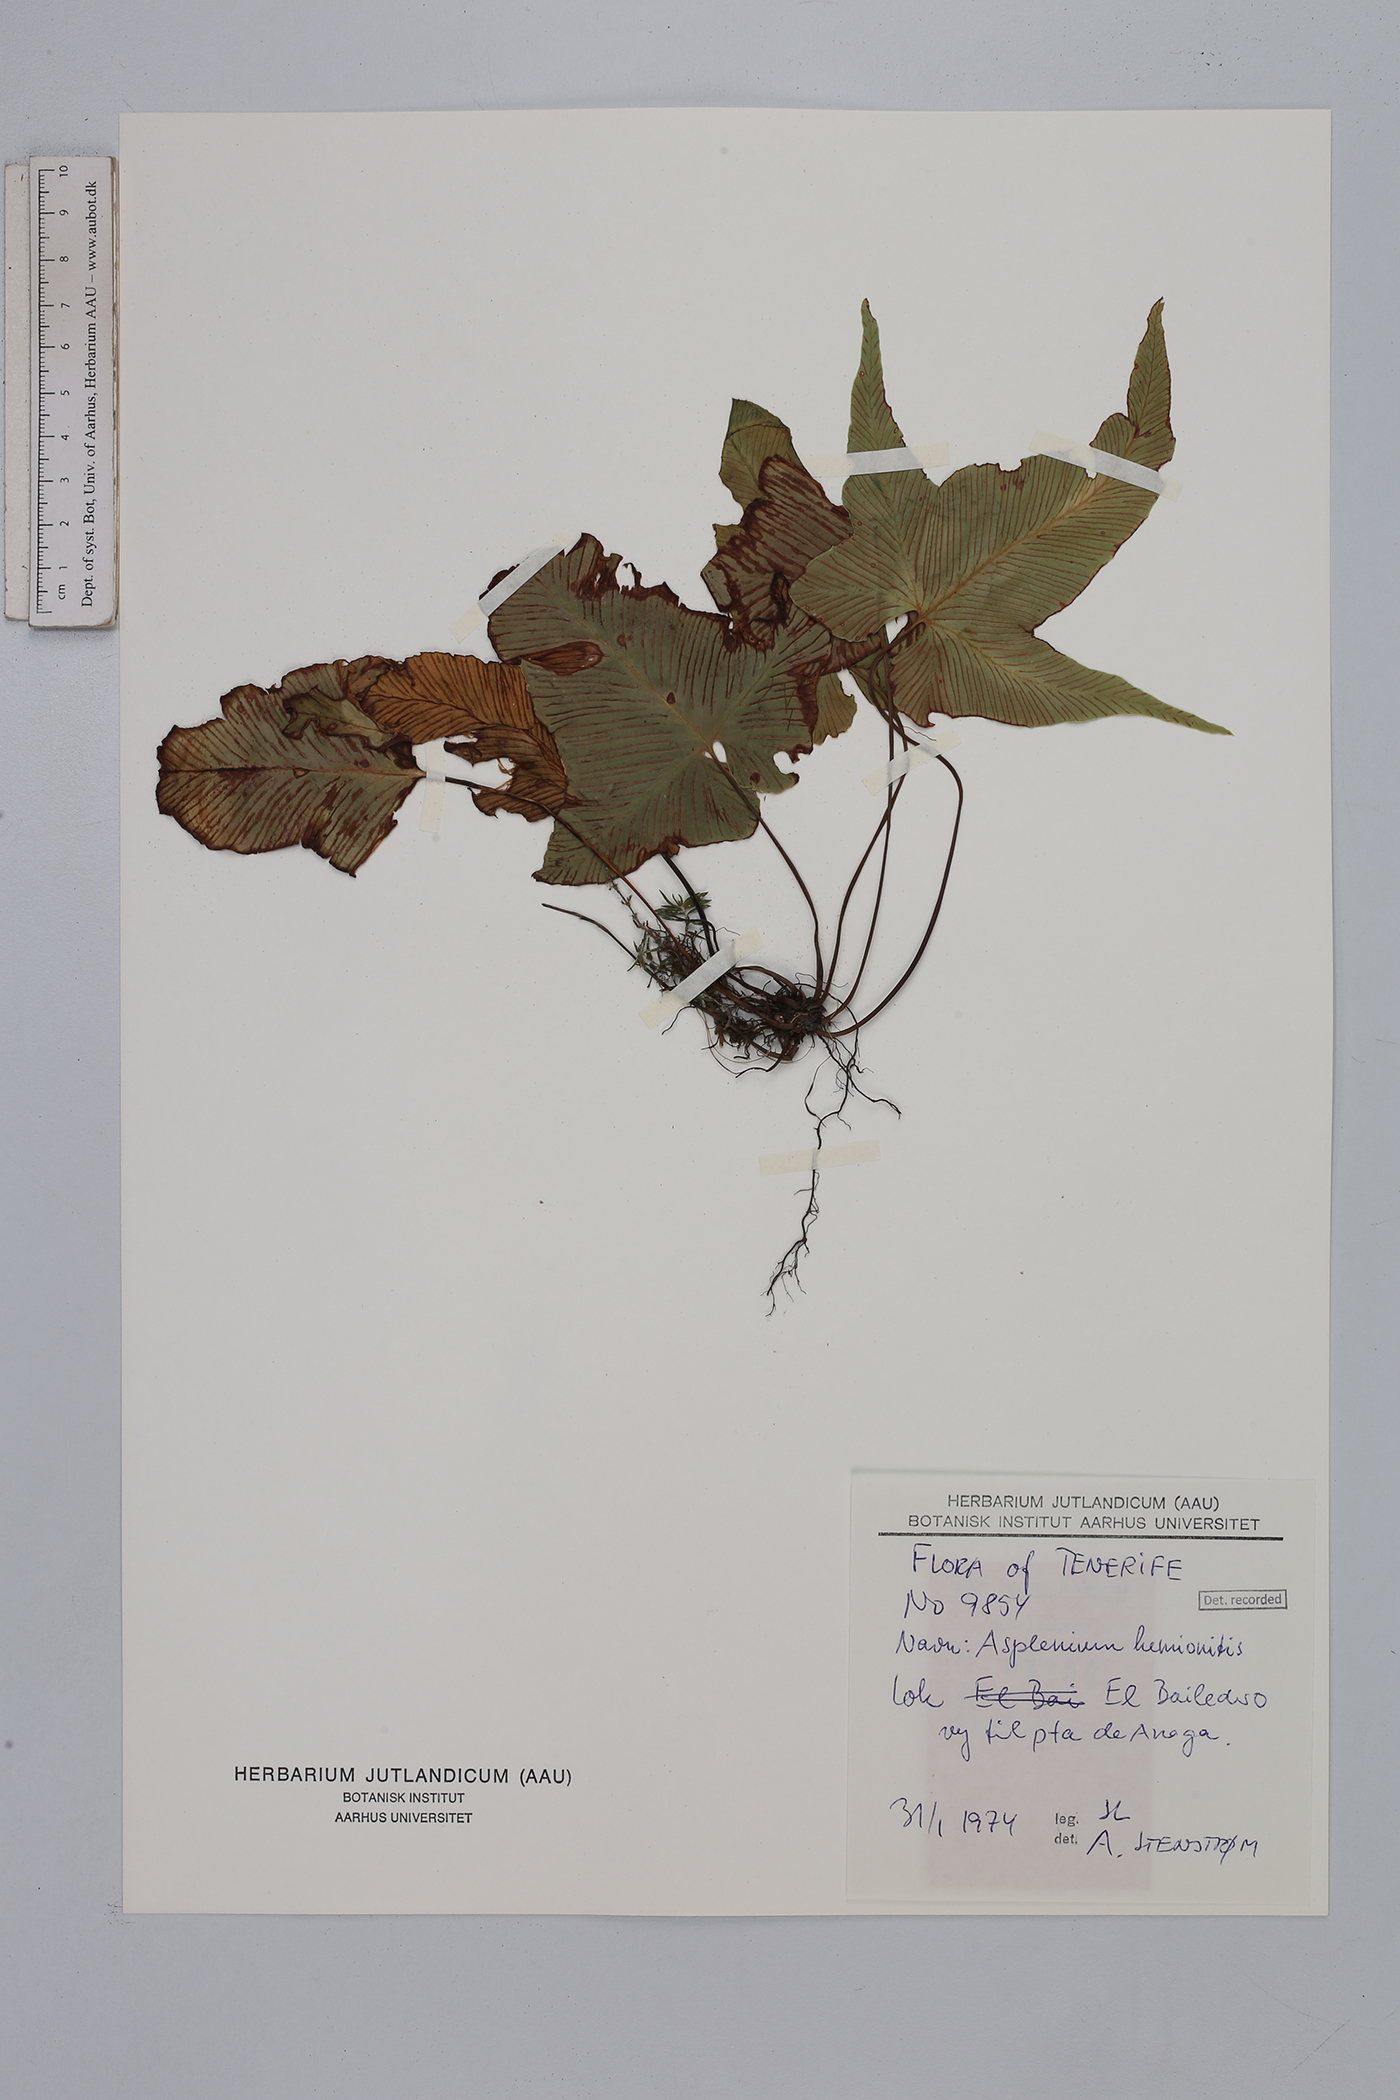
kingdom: Plantae
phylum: Tracheophyta
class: Polypodiopsida
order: Polypodiales
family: Aspleniaceae
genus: Asplenium
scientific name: Asplenium hemionitis
